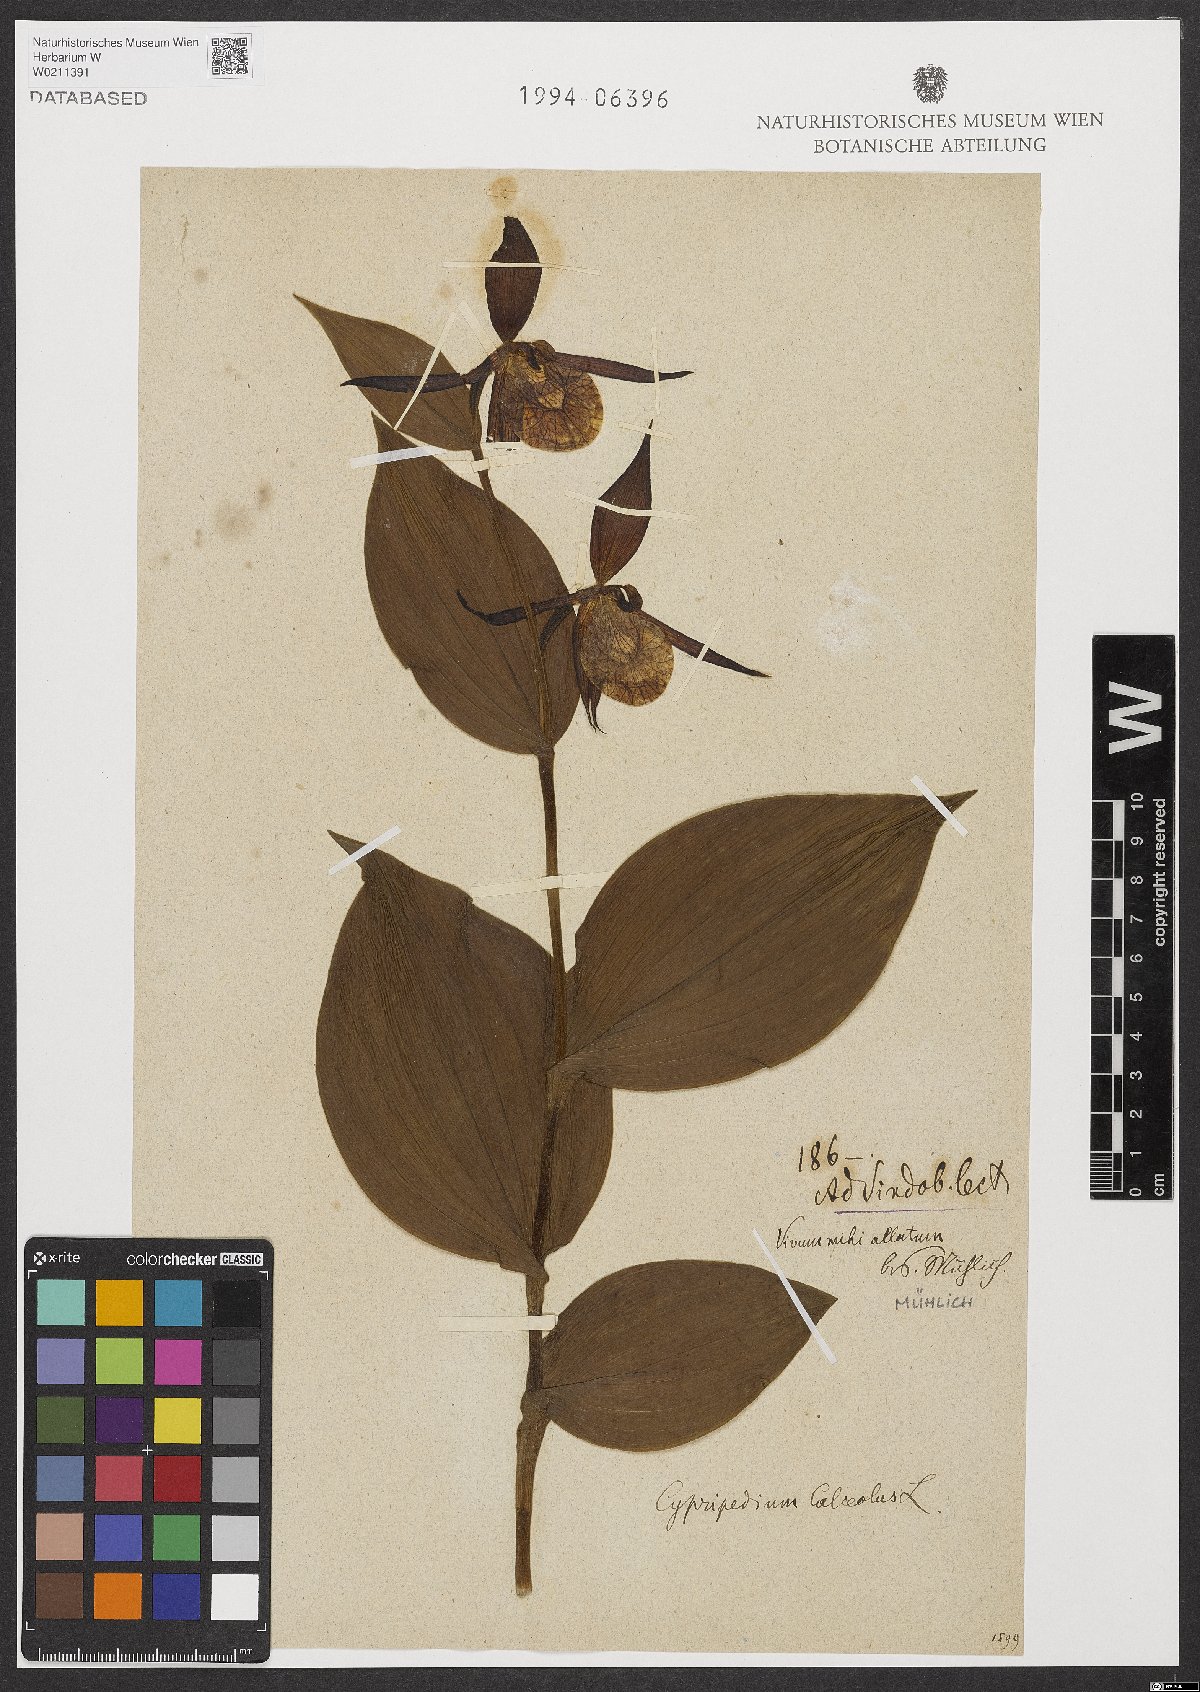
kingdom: Plantae
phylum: Tracheophyta
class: Liliopsida
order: Asparagales
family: Orchidaceae
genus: Cypripedium
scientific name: Cypripedium calceolus
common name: Lady's-slipper
